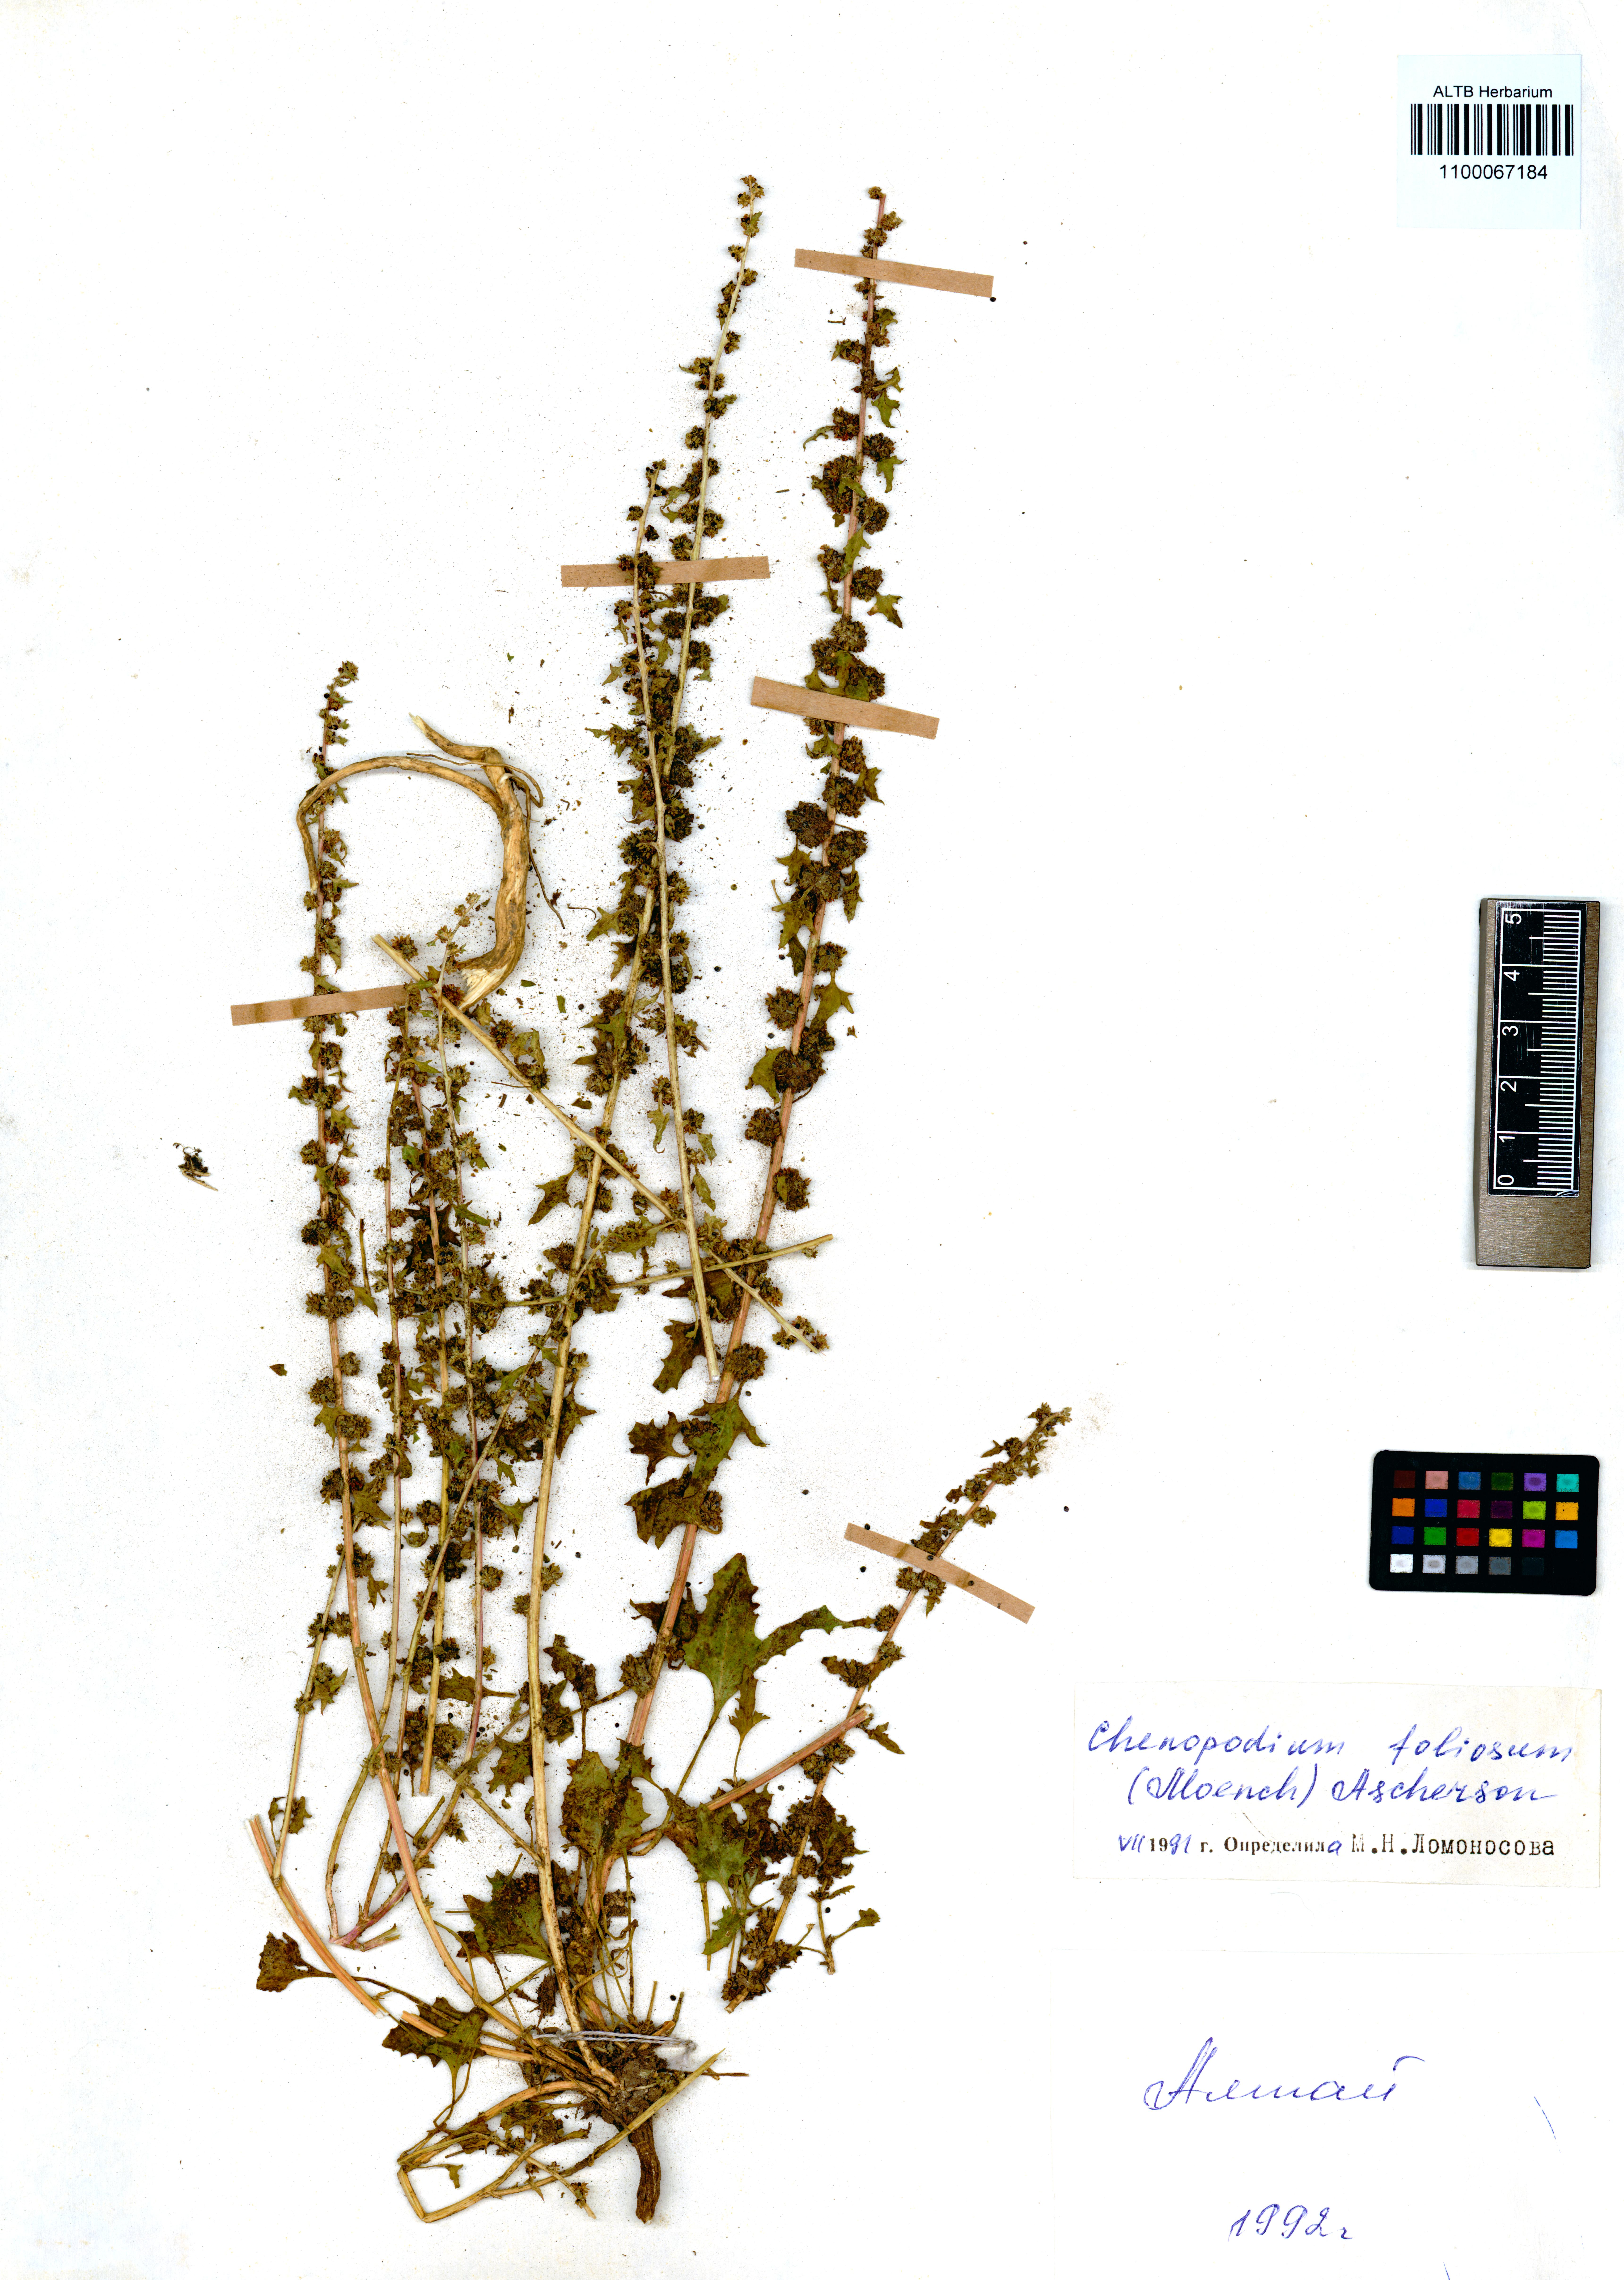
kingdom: Plantae
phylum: Tracheophyta
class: Magnoliopsida
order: Caryophyllales
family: Amaranthaceae
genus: Blitum
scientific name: Blitum virgatum
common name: Strawberry goosefoot
